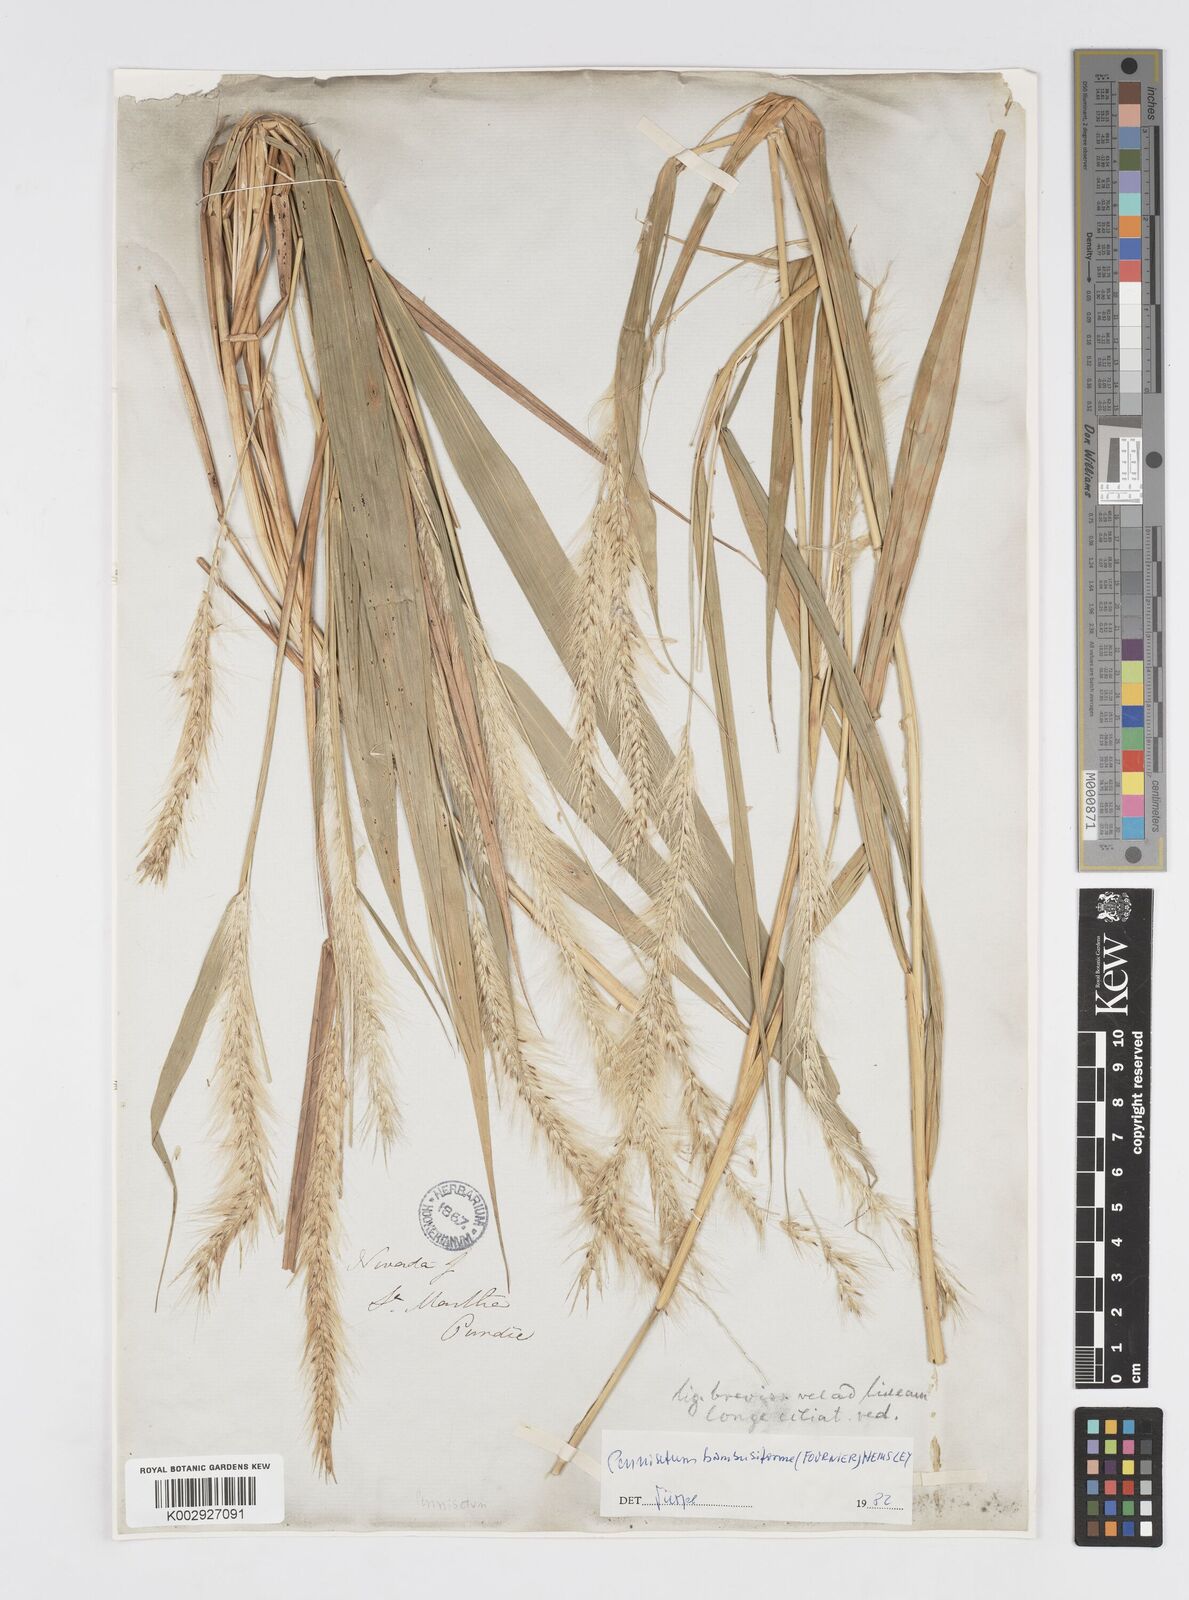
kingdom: Plantae
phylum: Tracheophyta
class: Liliopsida
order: Poales
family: Poaceae
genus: Cenchrus
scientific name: Cenchrus tristachyus
